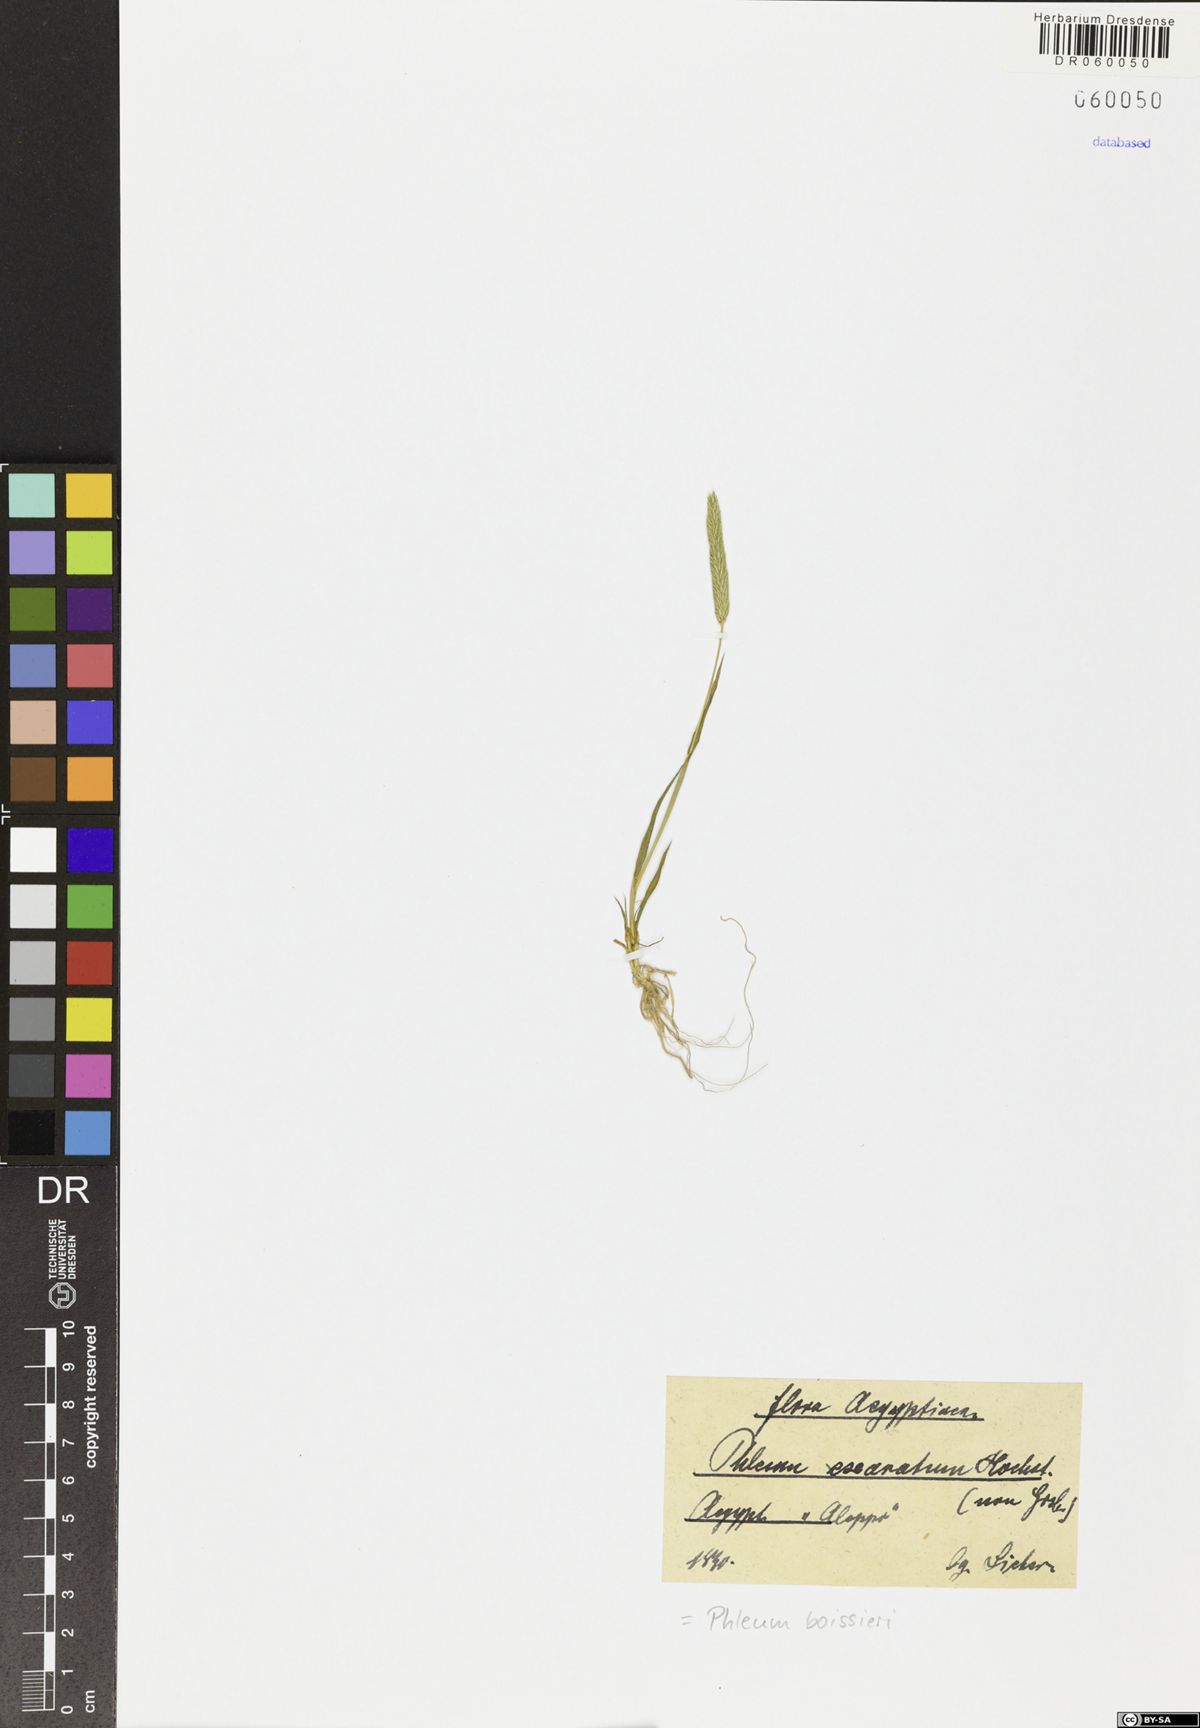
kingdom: Plantae
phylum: Tracheophyta
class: Liliopsida
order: Poales
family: Poaceae
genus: Phleum
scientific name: Phleum boissieri
